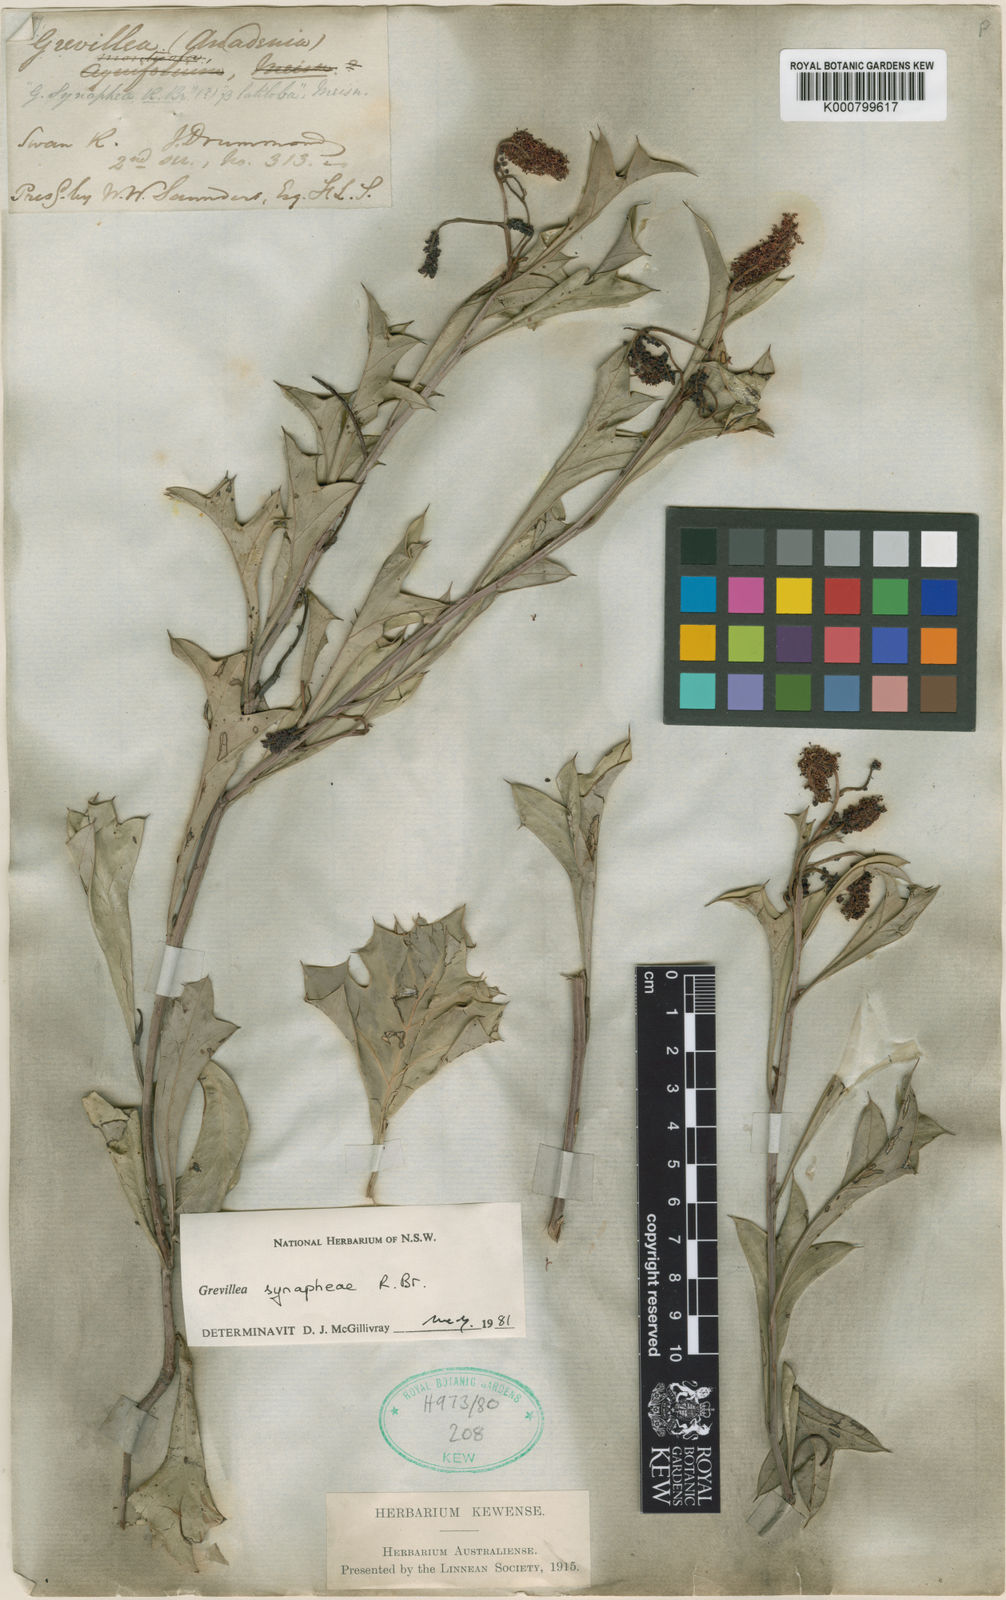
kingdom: Plantae
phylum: Tracheophyta
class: Magnoliopsida
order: Proteales
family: Proteaceae
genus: Grevillea
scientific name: Grevillea synaphea
